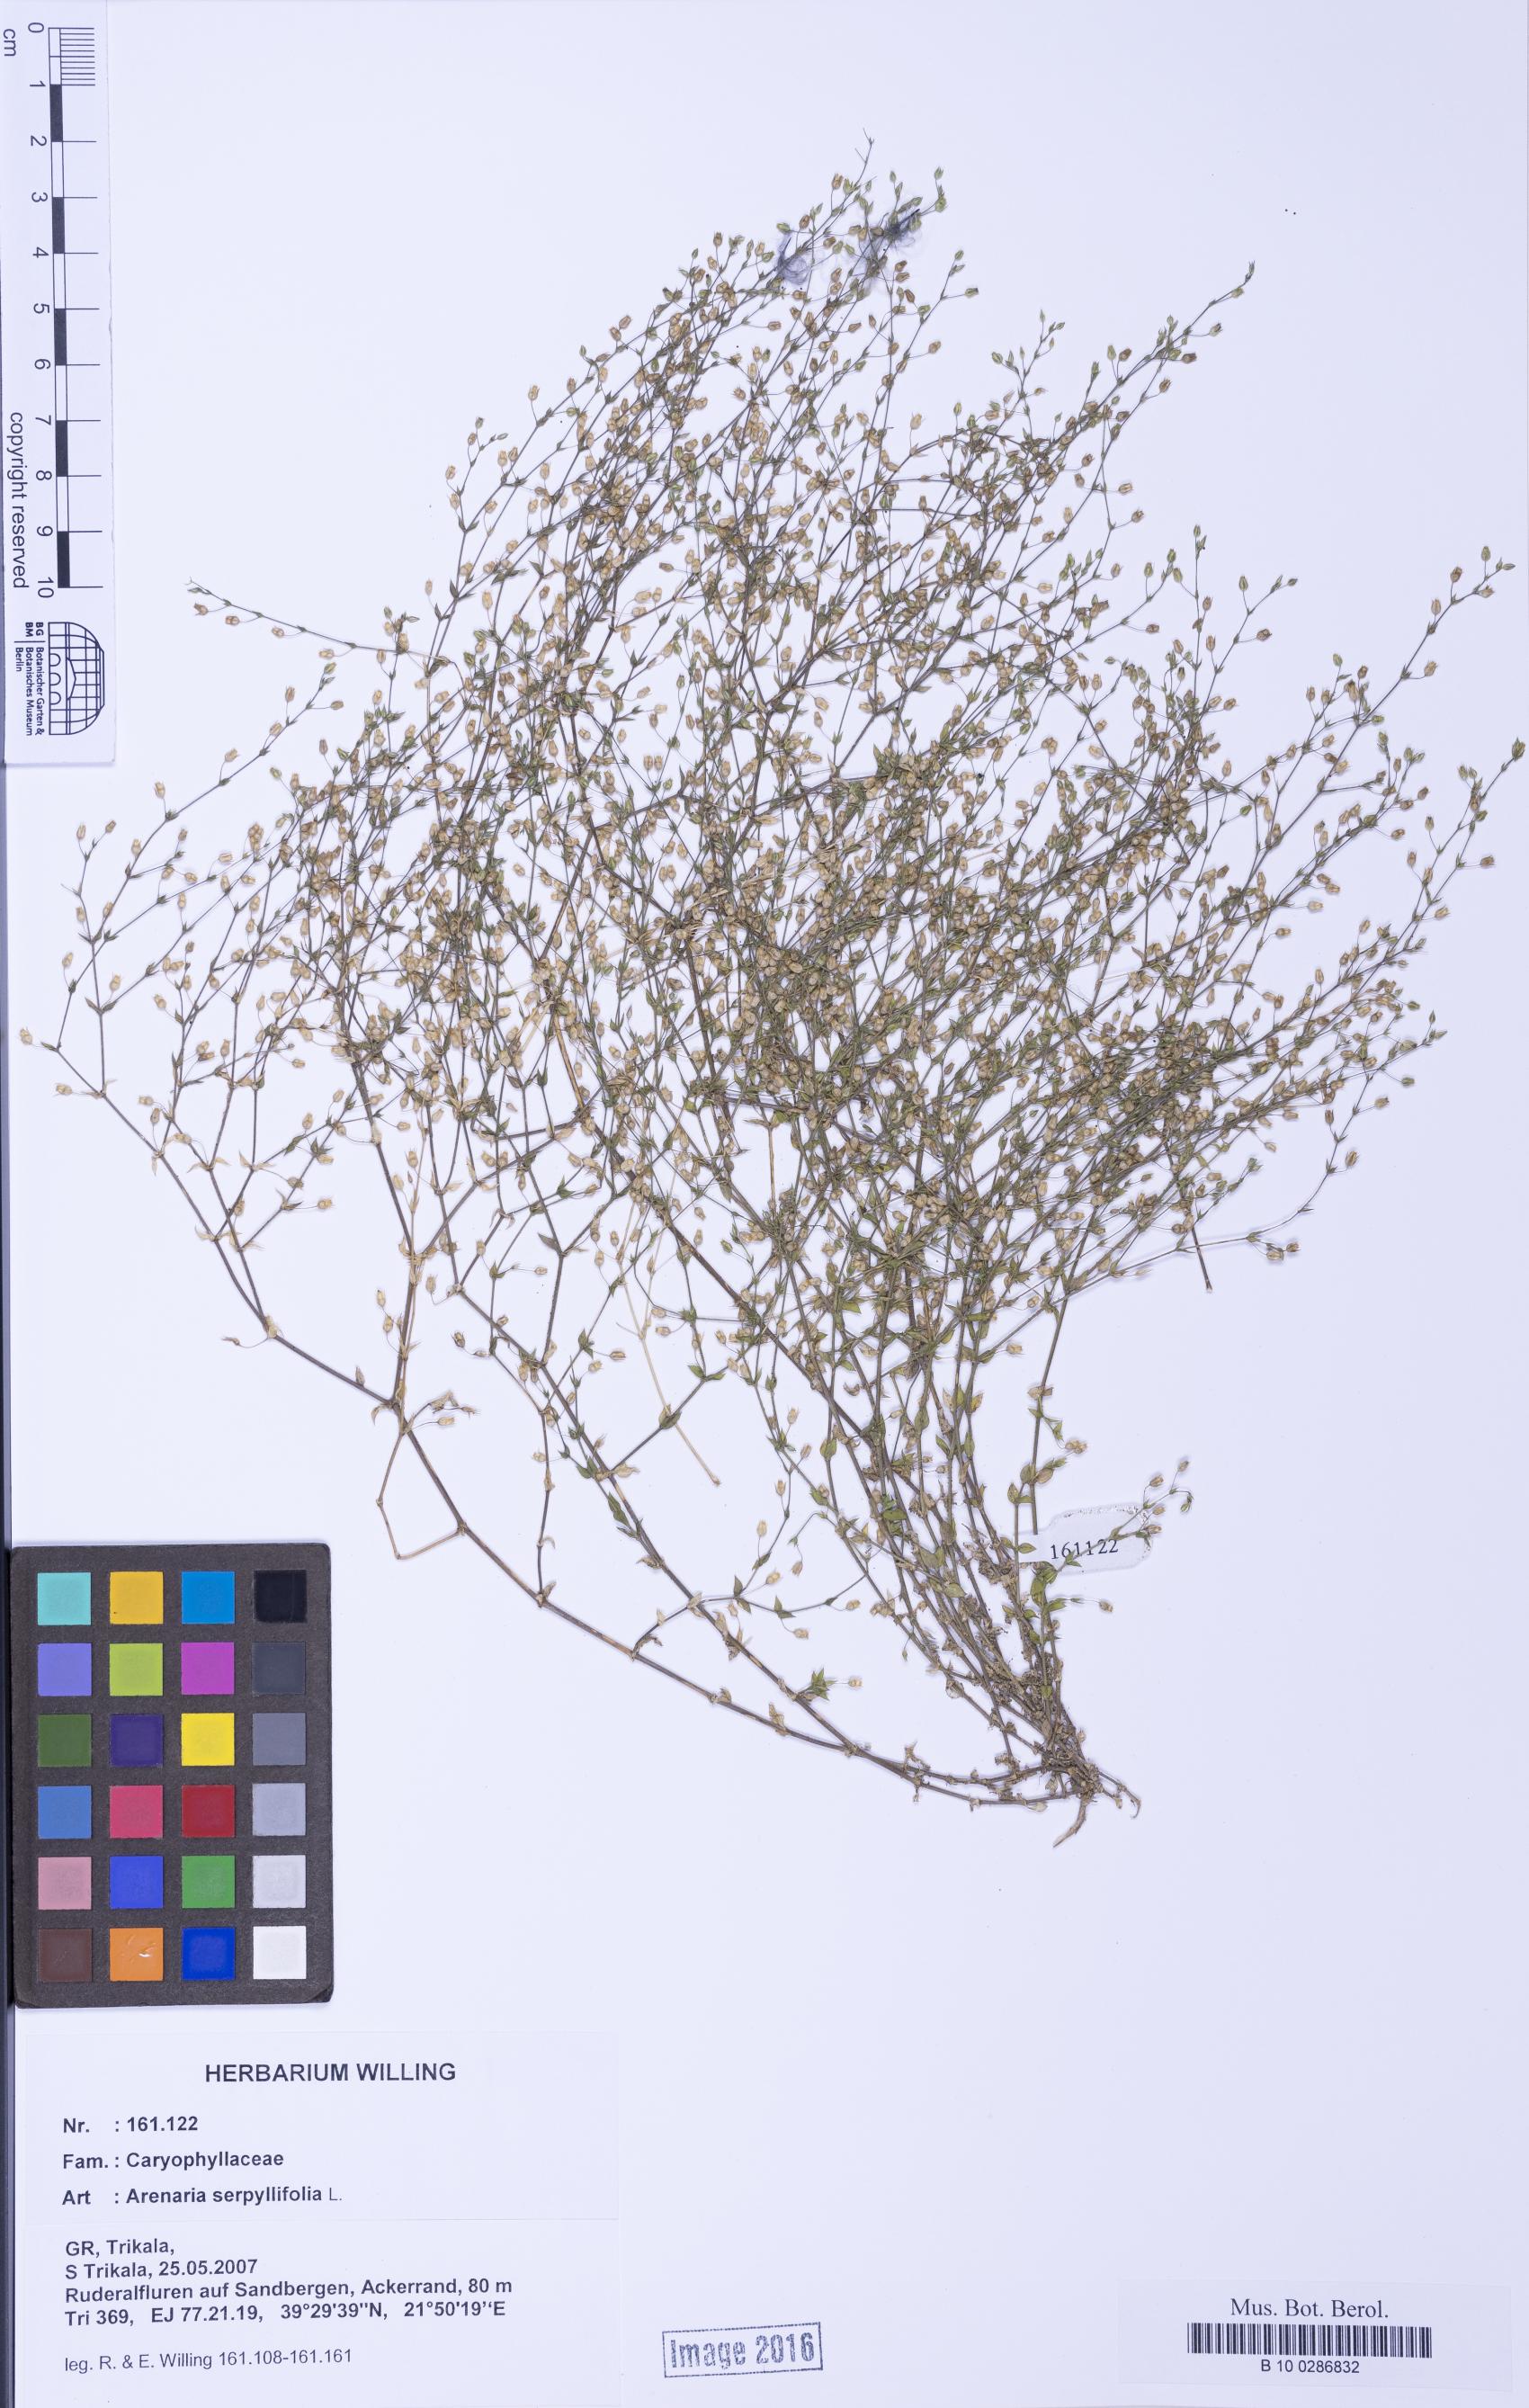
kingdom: Plantae
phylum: Tracheophyta
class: Magnoliopsida
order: Caryophyllales
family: Caryophyllaceae
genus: Arenaria
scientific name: Arenaria serpyllifolia
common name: Thyme-leaved sandwort
